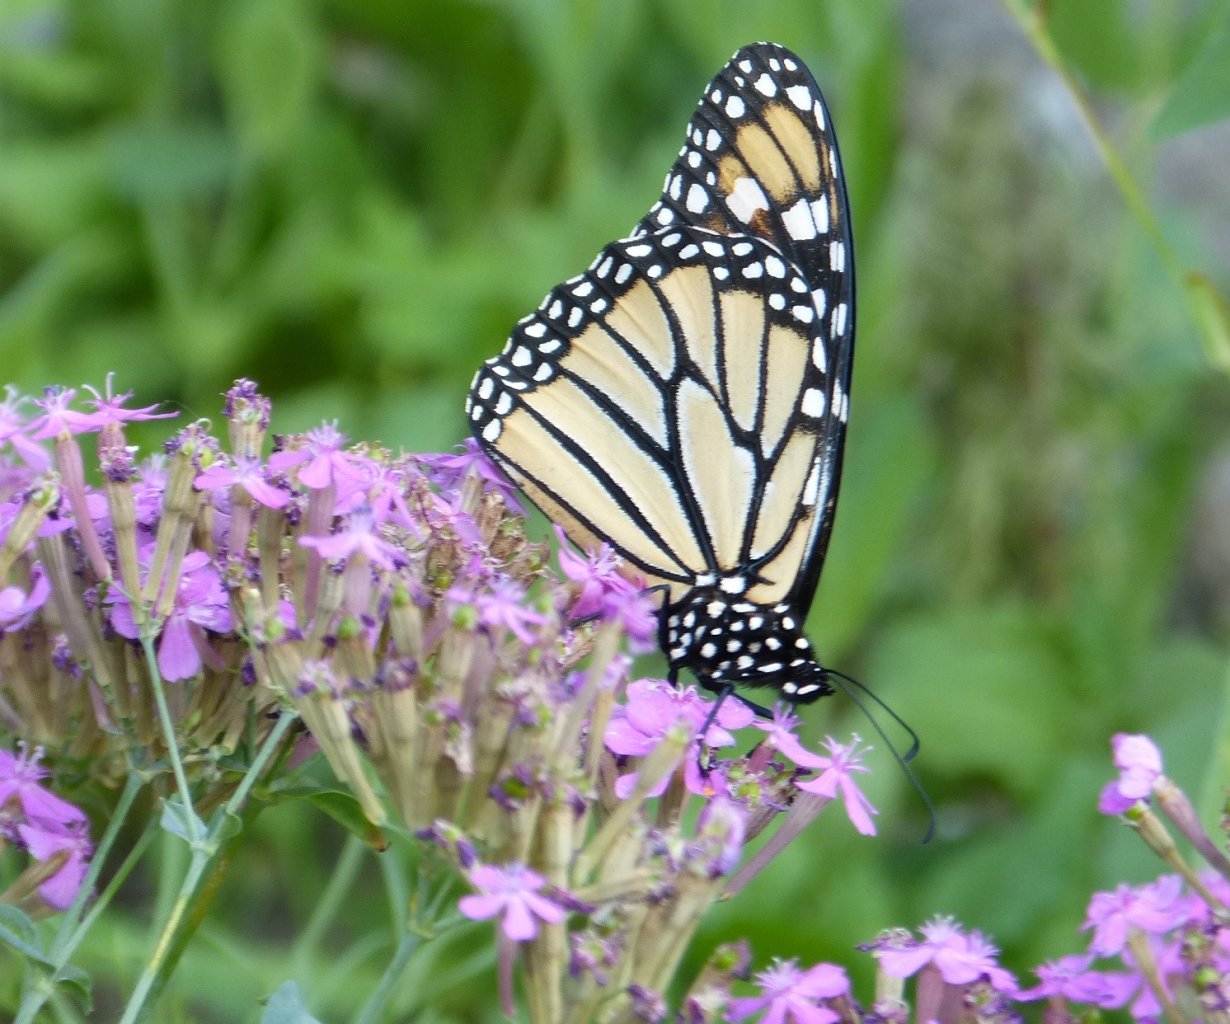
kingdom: Animalia
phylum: Arthropoda
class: Insecta
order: Lepidoptera
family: Nymphalidae
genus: Danaus
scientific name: Danaus plexippus
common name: Monarch
